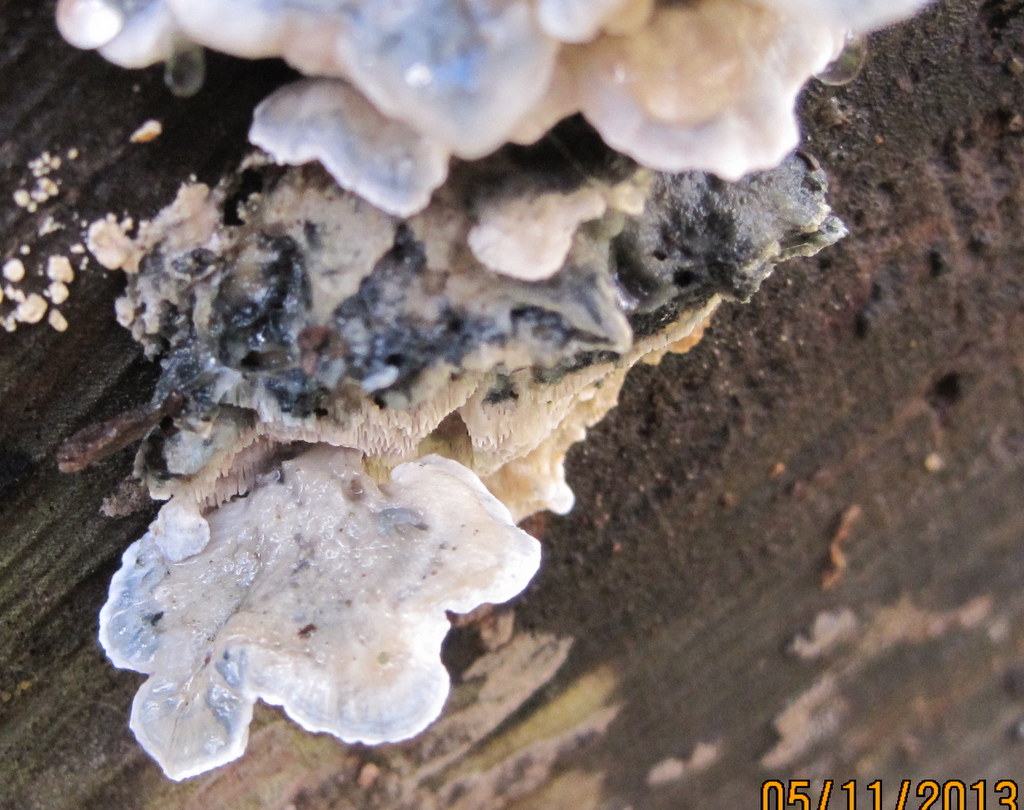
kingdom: Fungi
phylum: Basidiomycota
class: Agaricomycetes
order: Polyporales
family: Polyporaceae
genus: Cyanosporus
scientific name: Cyanosporus alni
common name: blegblå kødporesvamp
